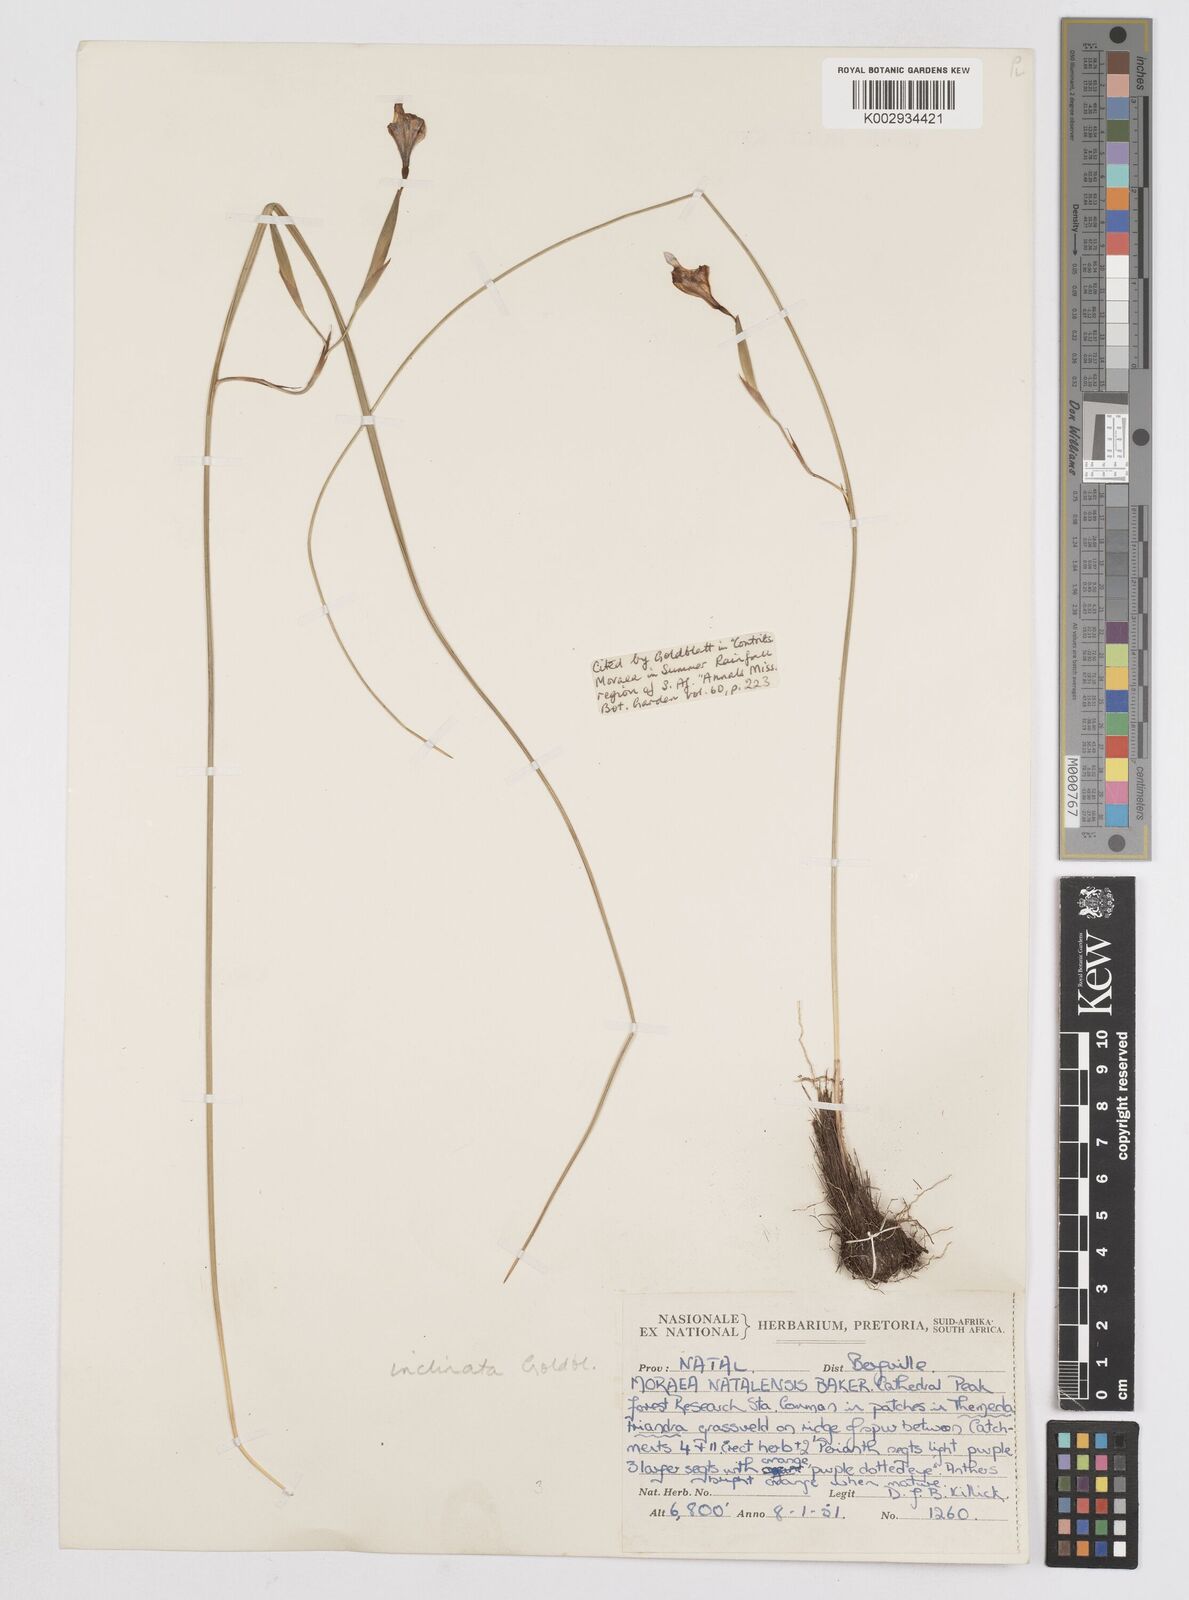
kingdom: Plantae
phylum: Tracheophyta
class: Liliopsida
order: Asparagales
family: Iridaceae
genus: Moraea
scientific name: Moraea inclinata
